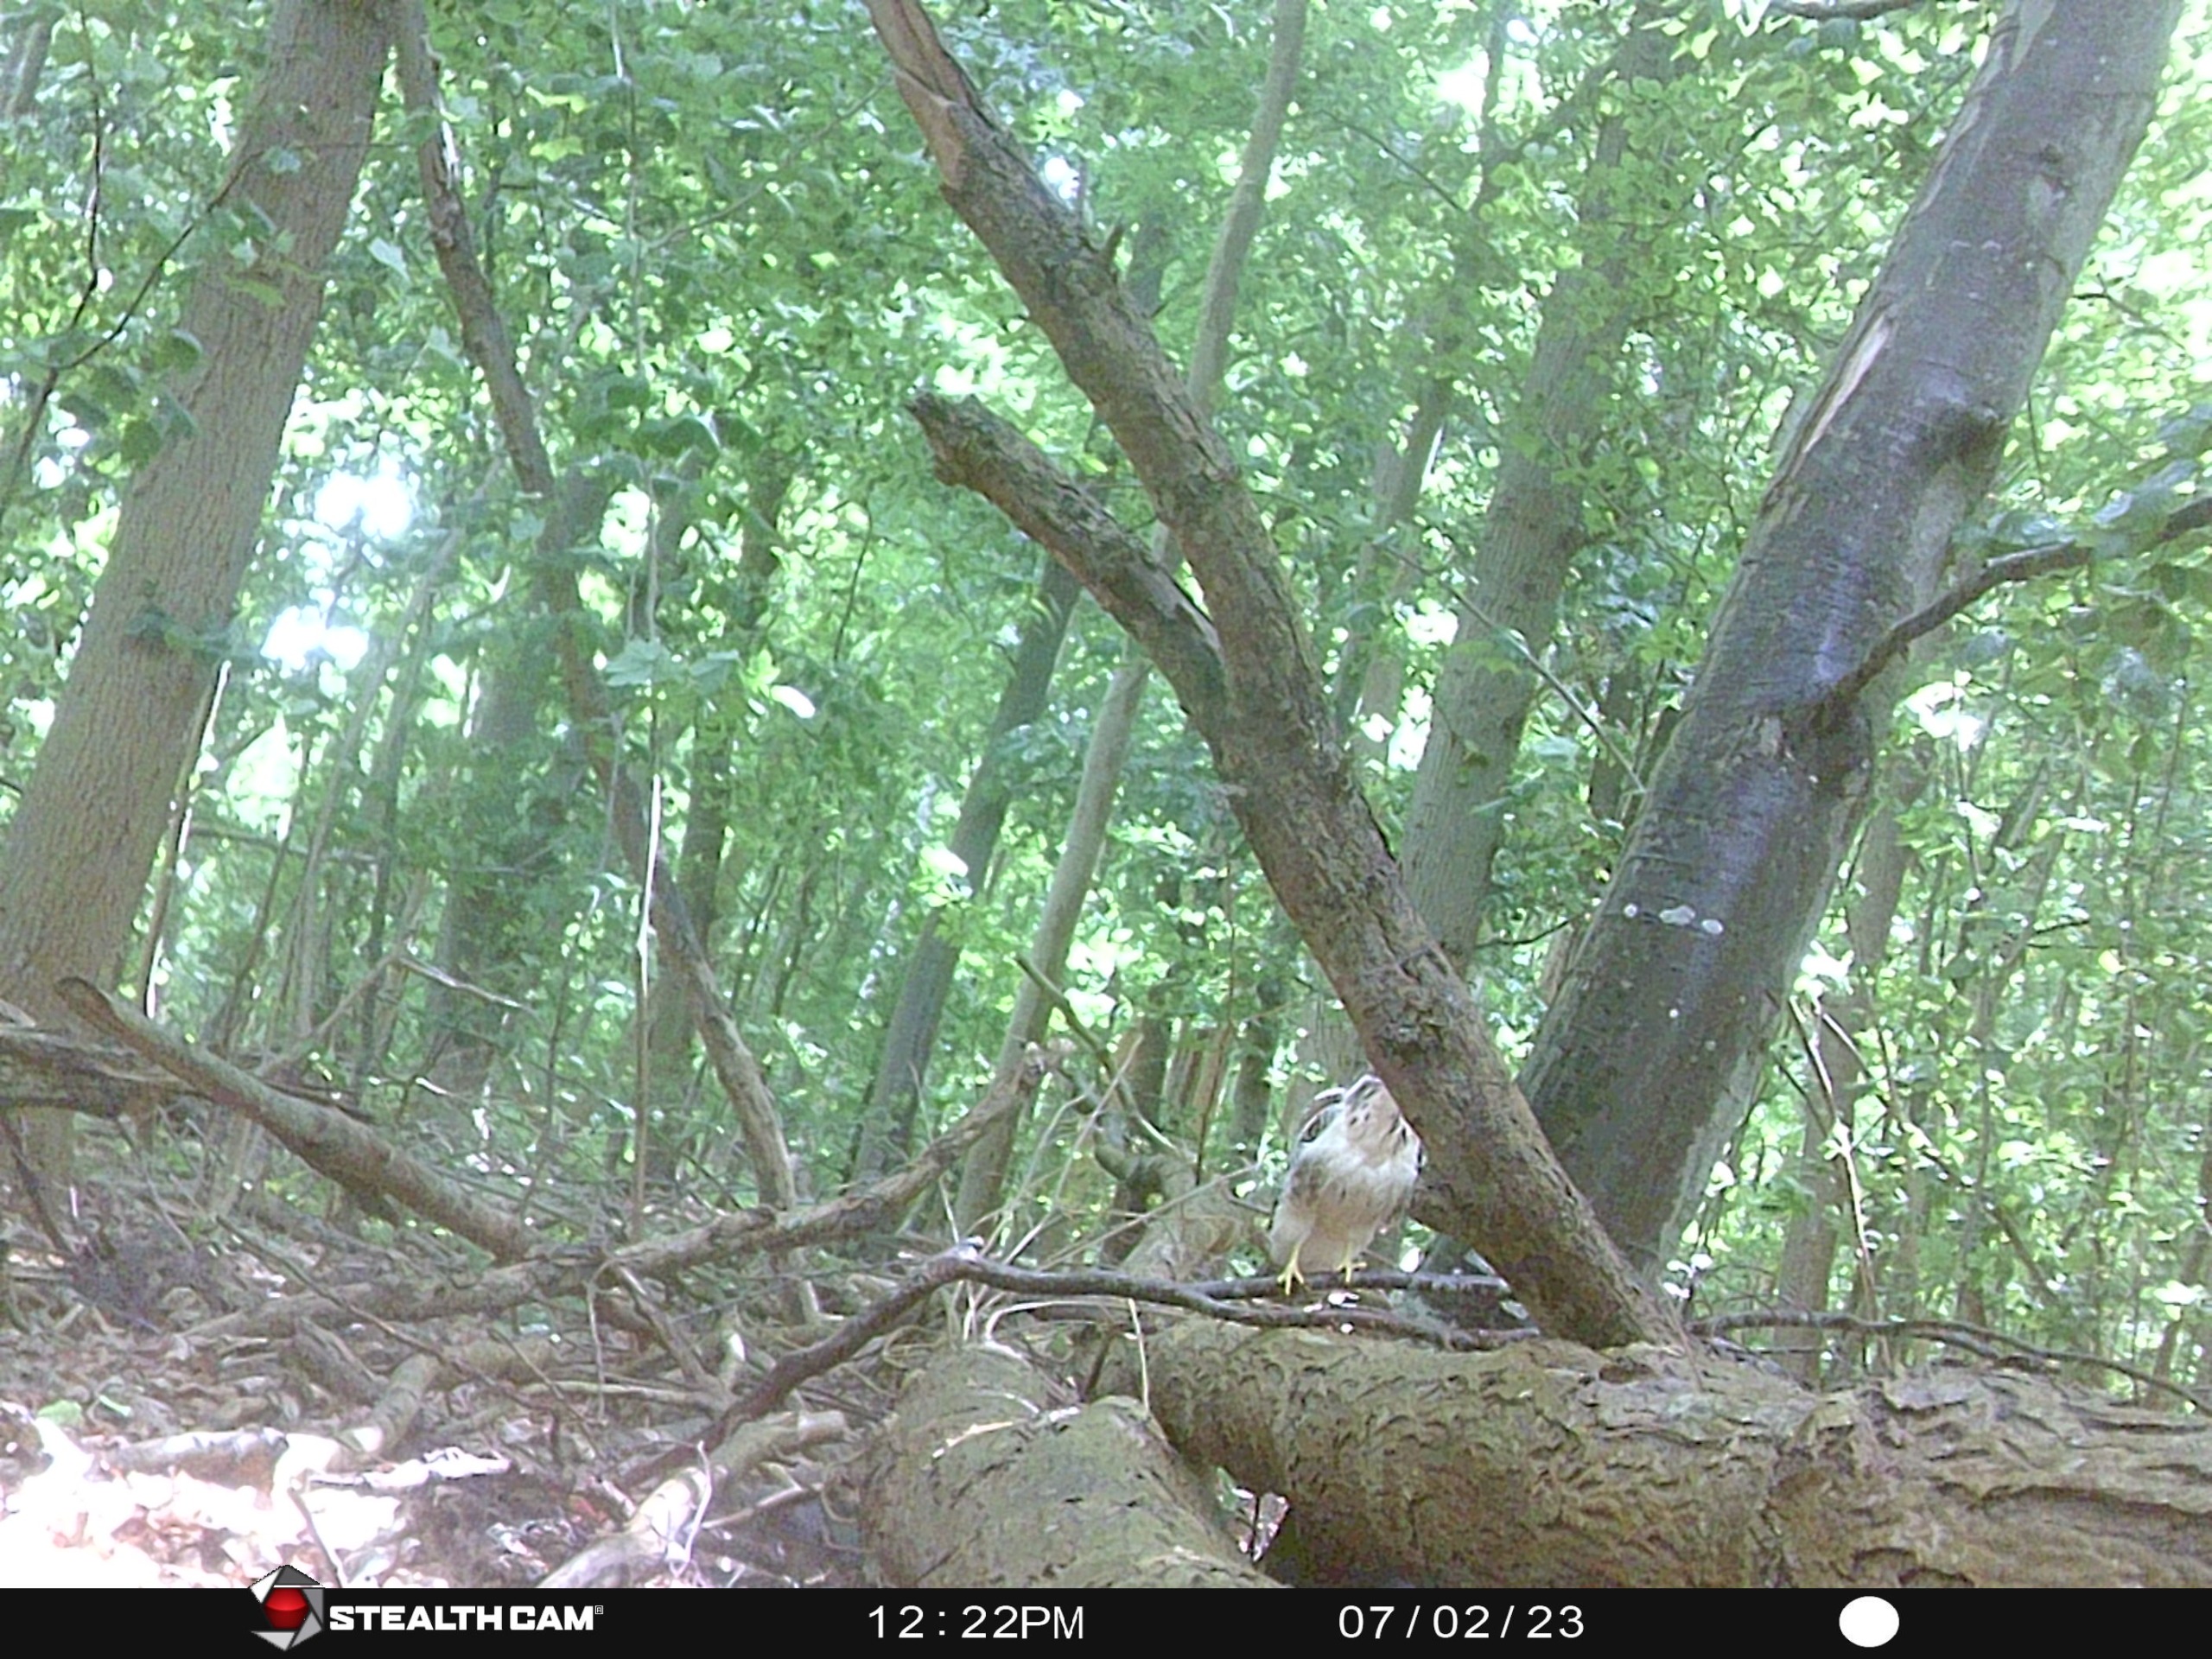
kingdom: Animalia
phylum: Chordata
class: Aves
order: Accipitriformes
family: Accipitridae
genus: Buteo
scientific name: Buteo buteo
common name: Musvåge
